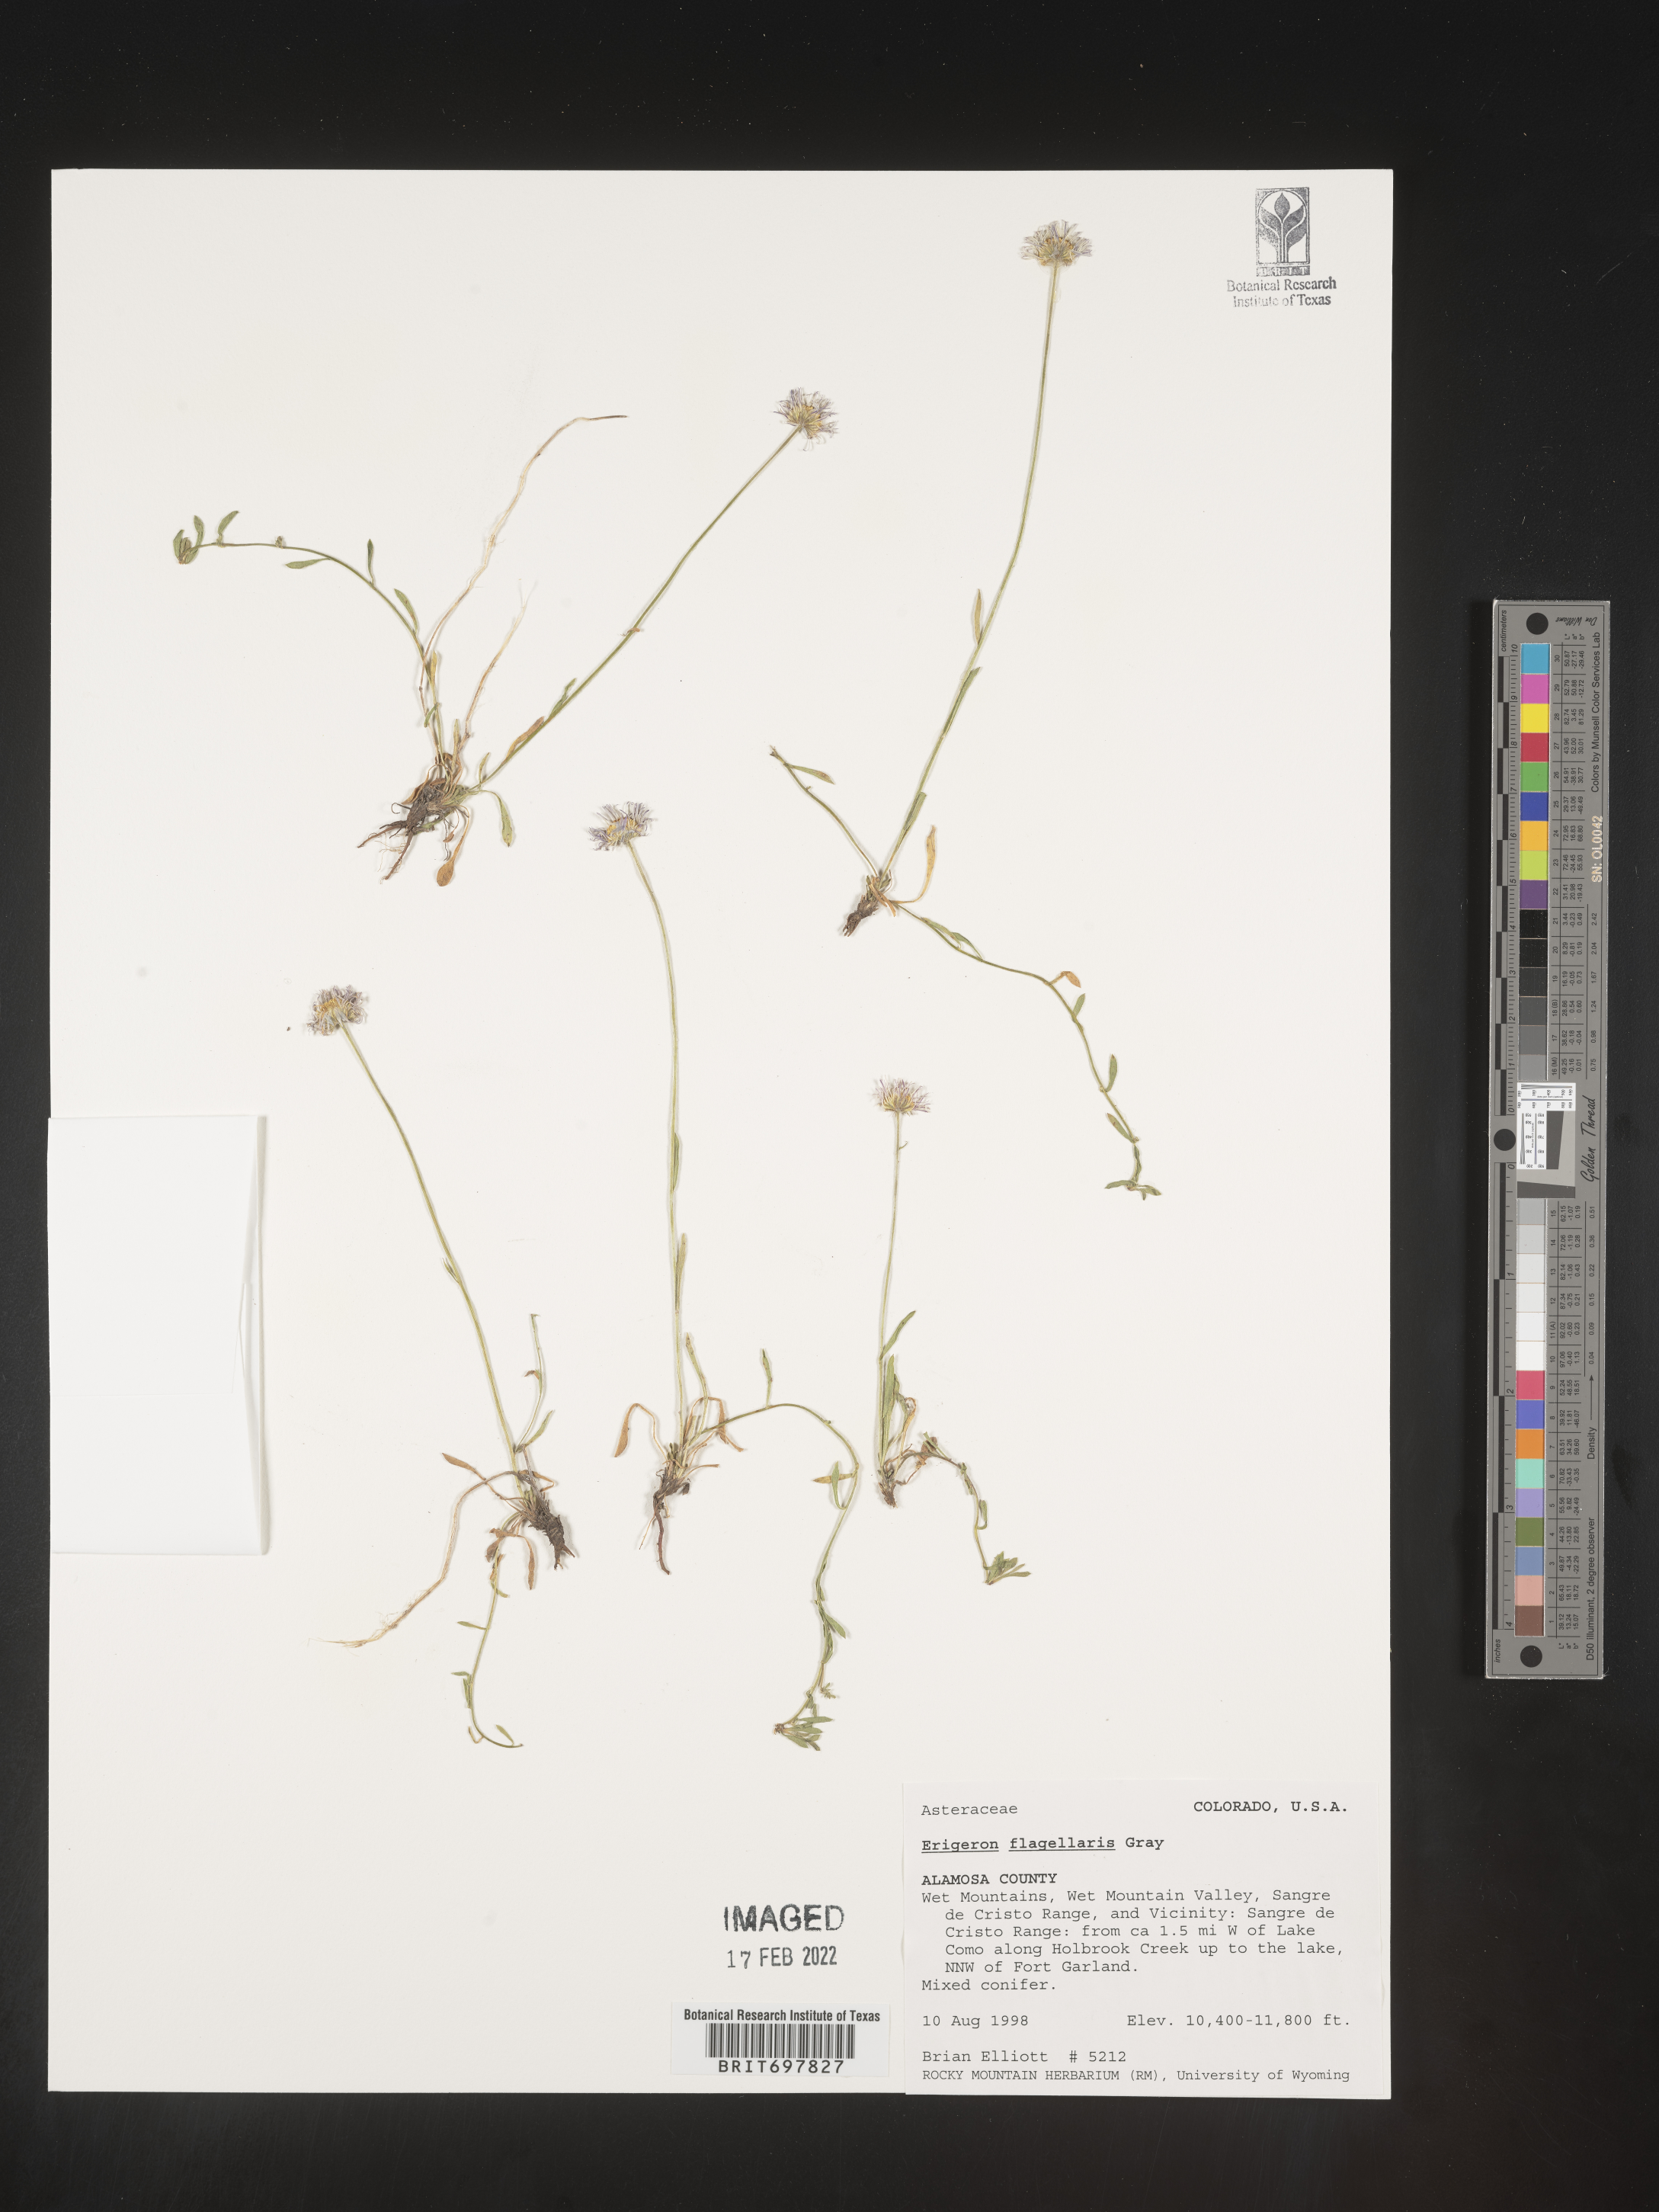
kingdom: Plantae
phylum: Tracheophyta
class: Magnoliopsida
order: Asterales
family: Asteraceae
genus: Erigeron
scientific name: Erigeron flagellaris
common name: Running fleabane
